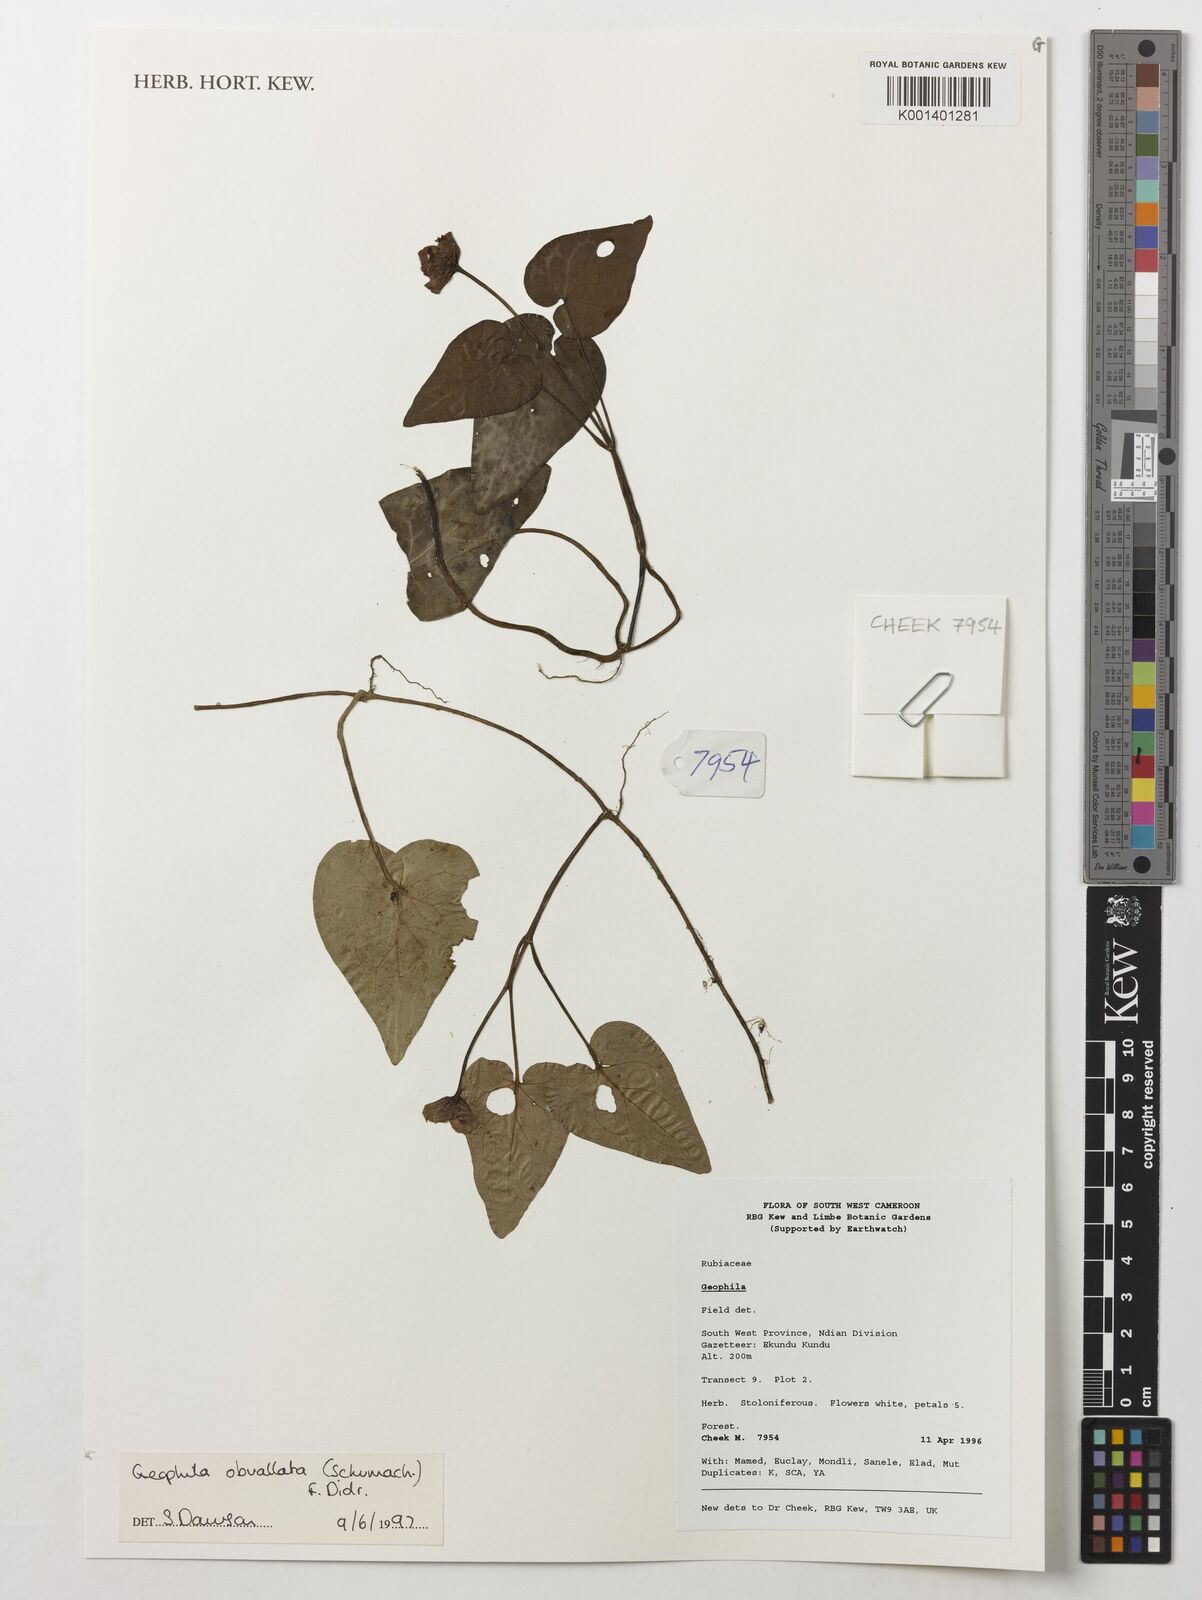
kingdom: Plantae
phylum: Tracheophyta
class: Magnoliopsida
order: Gentianales
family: Rubiaceae
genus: Geophila
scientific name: Geophila obvallata
